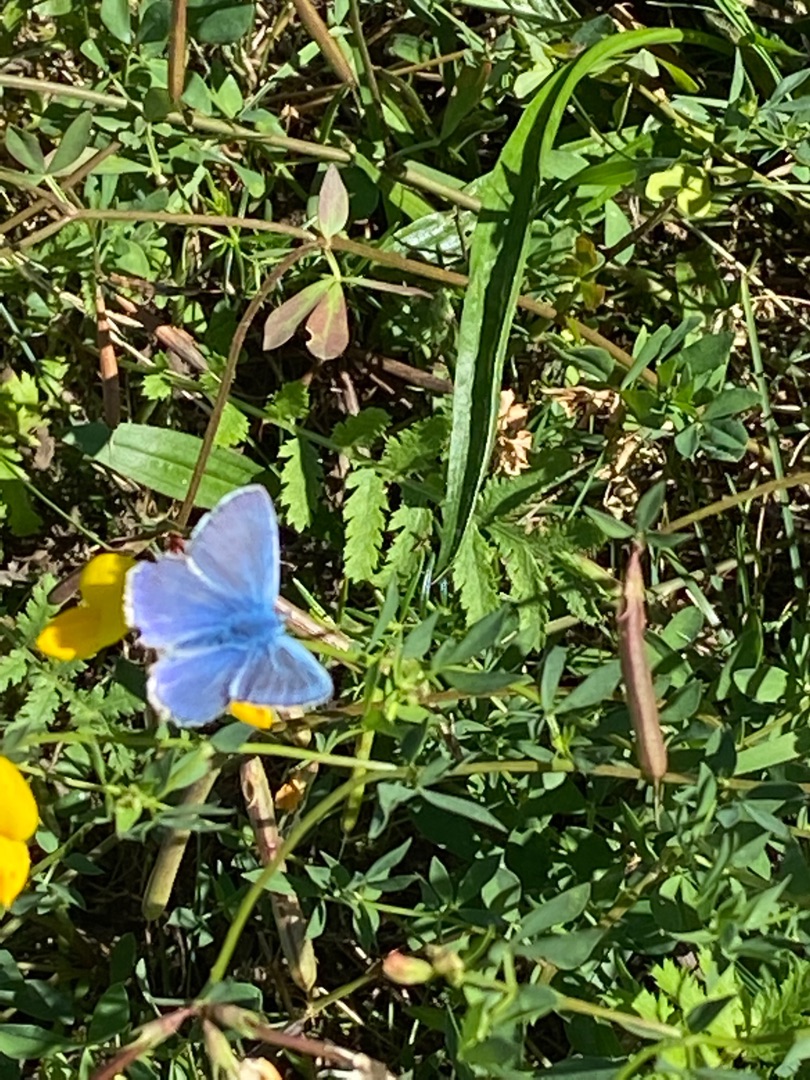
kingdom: Animalia
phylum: Arthropoda
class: Insecta
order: Lepidoptera
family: Lycaenidae
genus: Polyommatus
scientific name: Polyommatus icarus
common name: Almindelig blåfugl
